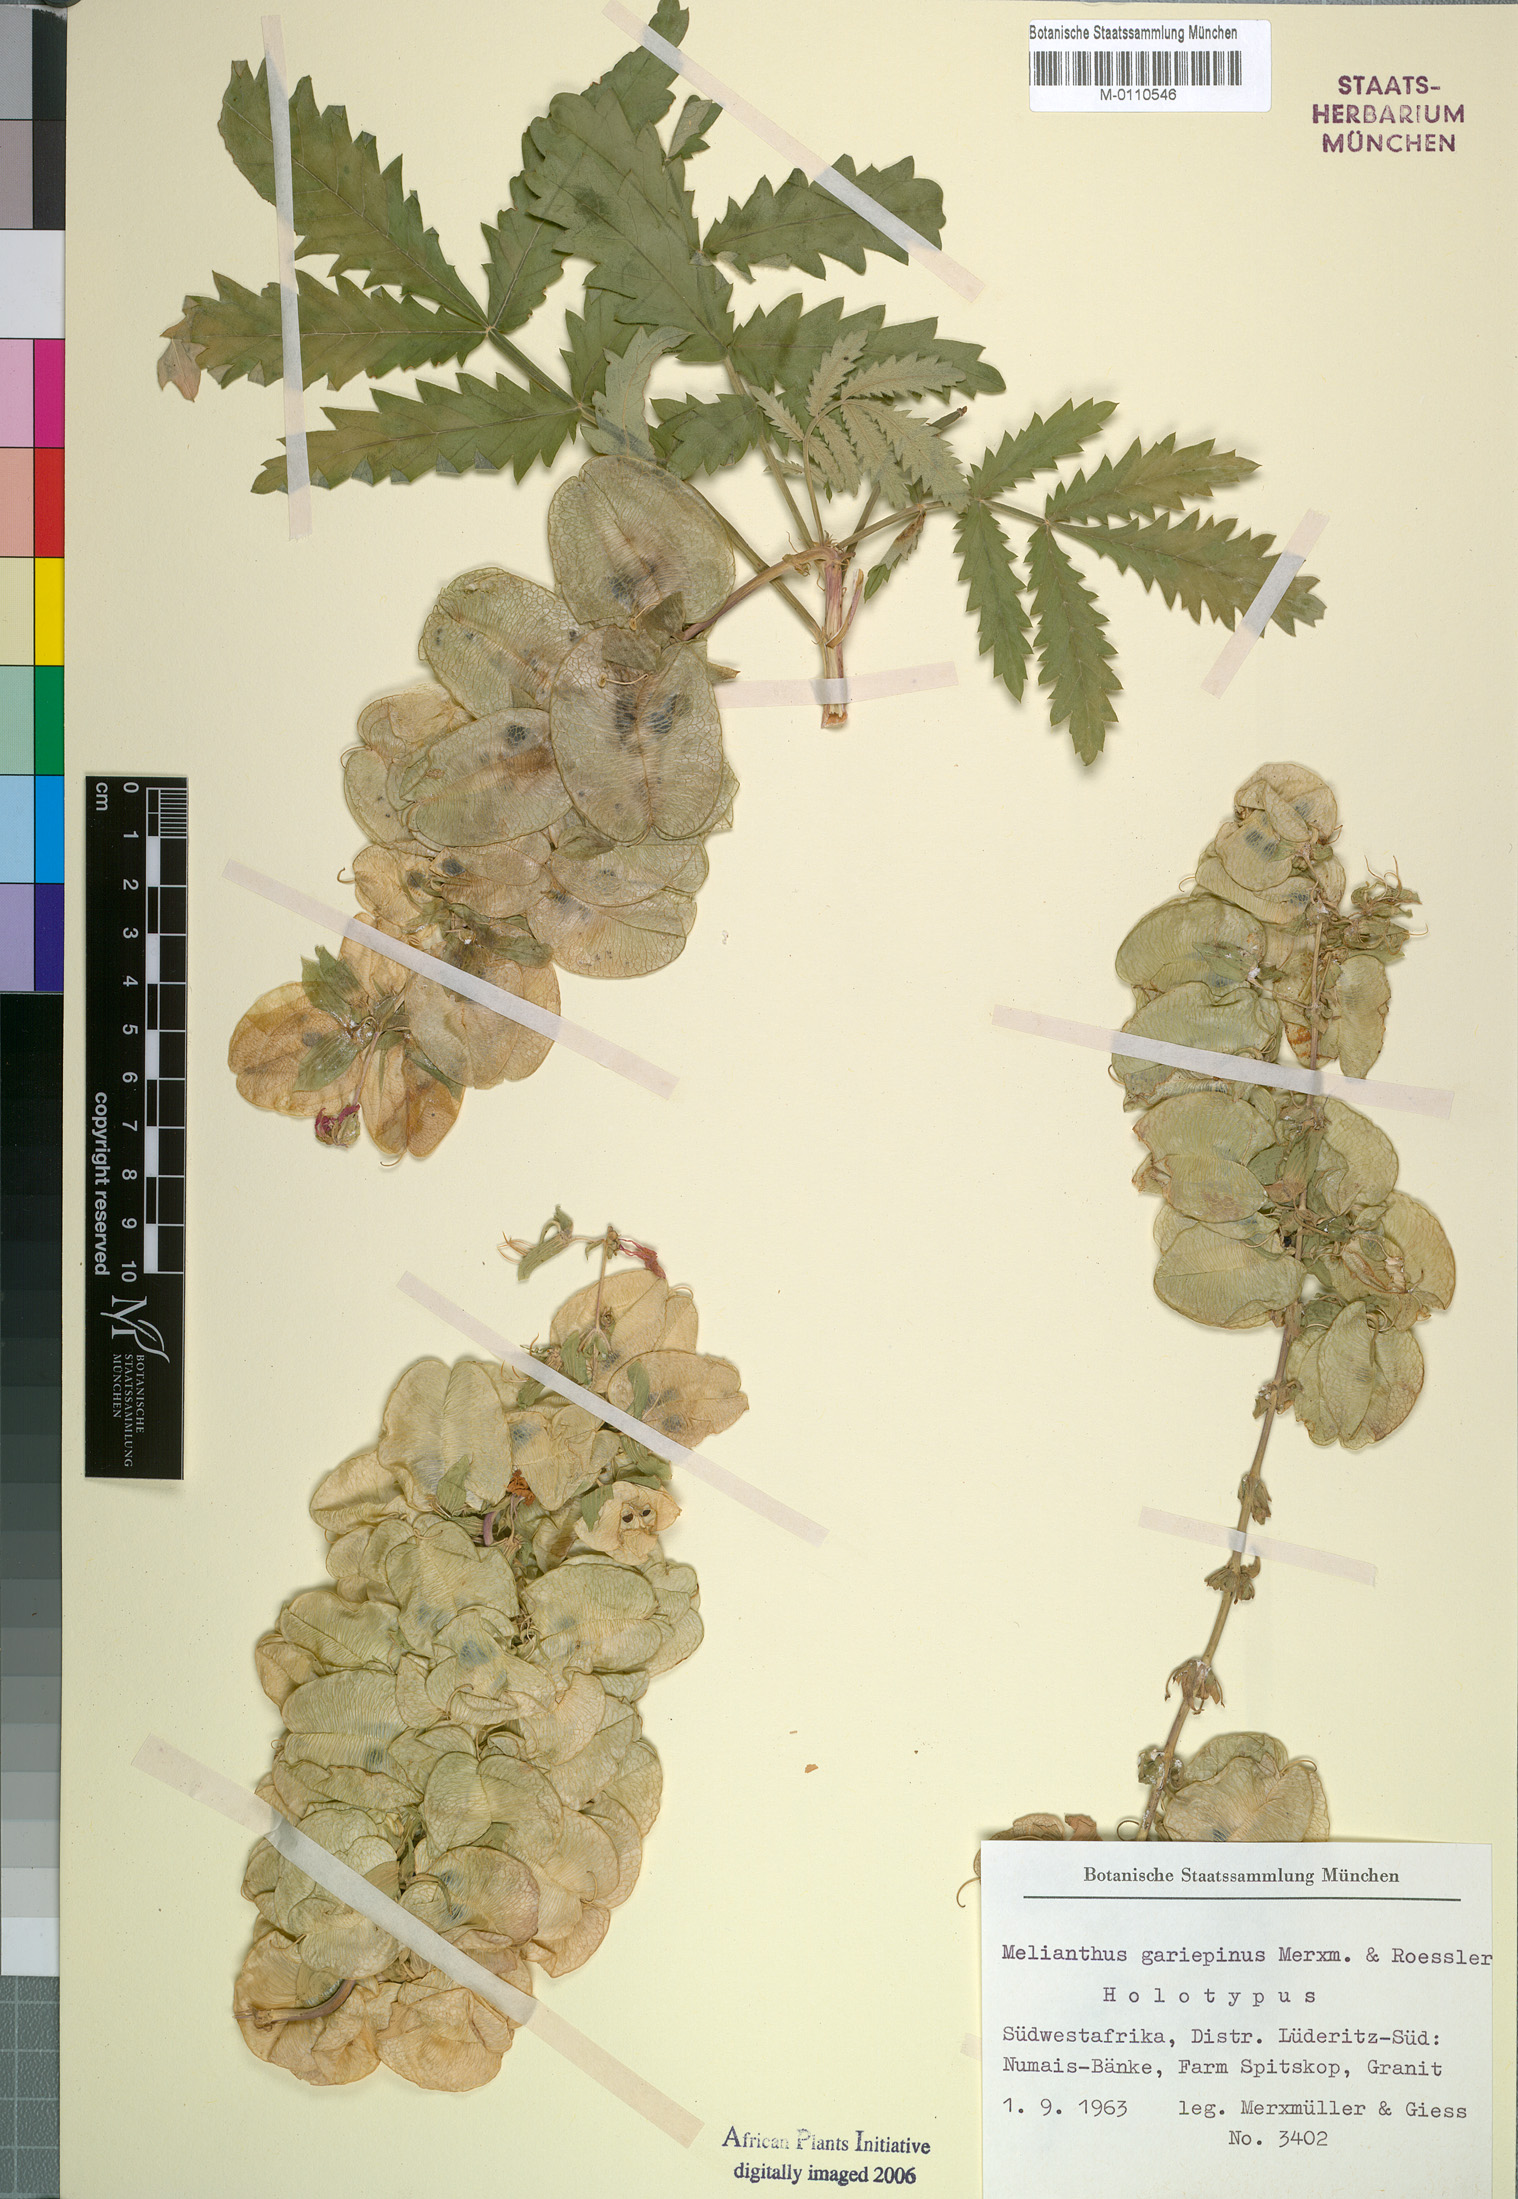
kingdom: Plantae
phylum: Tracheophyta
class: Magnoliopsida
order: Geraniales
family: Melianthaceae
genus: Melianthus
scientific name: Melianthus pectinatus
